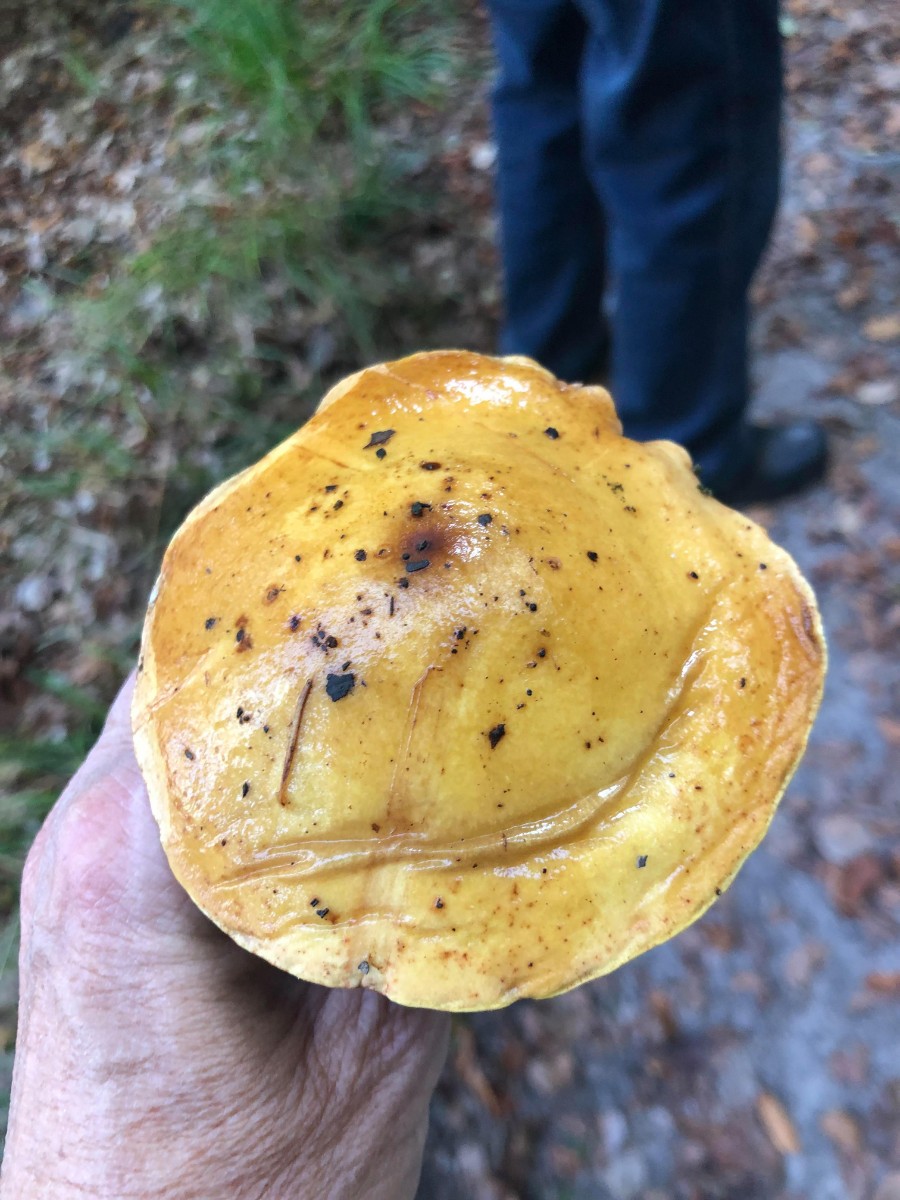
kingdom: Fungi
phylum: Basidiomycota
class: Agaricomycetes
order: Boletales
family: Suillaceae
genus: Suillus
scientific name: Suillus grevillei
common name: lærke-slimrørhat
